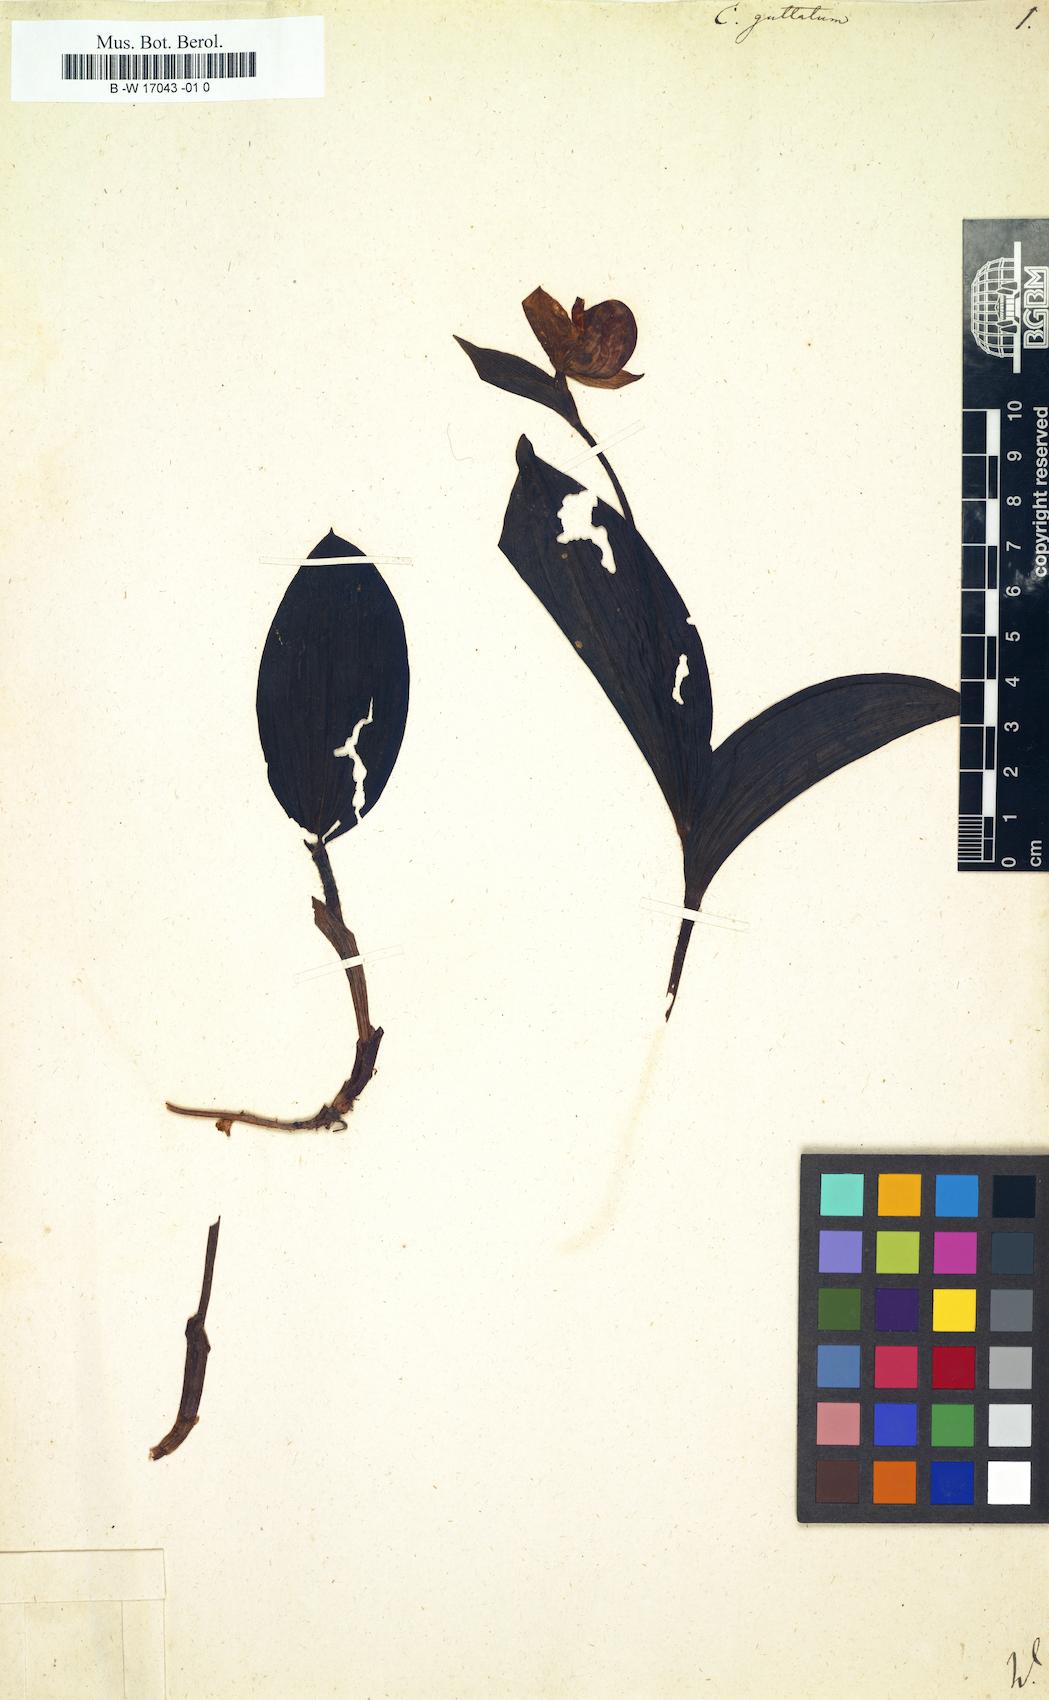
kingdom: Plantae
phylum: Tracheophyta
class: Liliopsida
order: Asparagales
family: Orchidaceae
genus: Cypripedium
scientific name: Cypripedium guttatum
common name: Pink lady slipper
